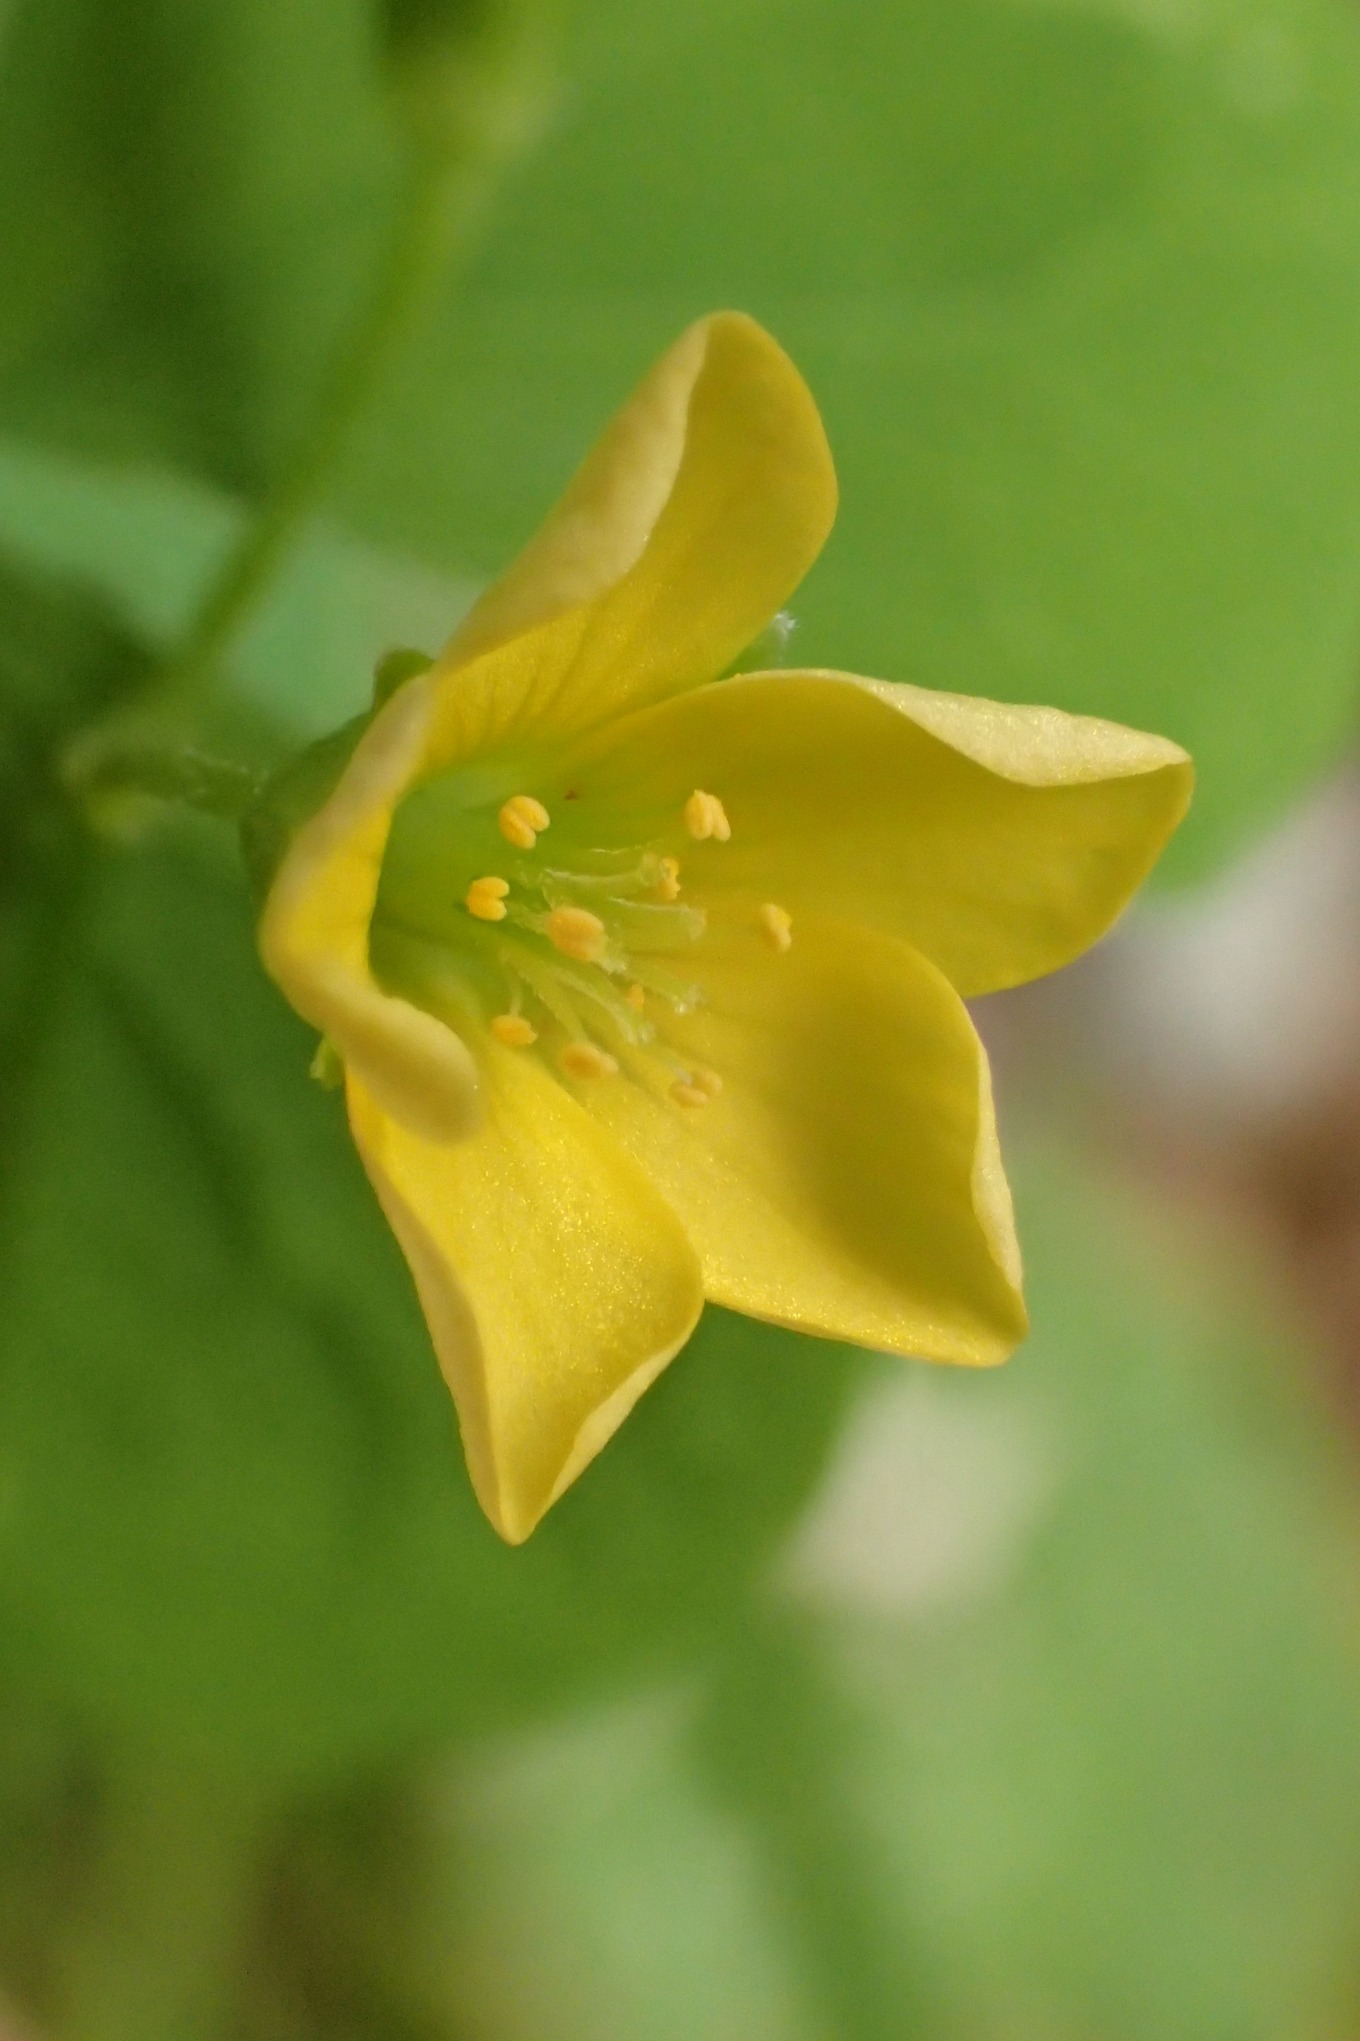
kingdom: Plantae
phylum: Tracheophyta
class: Magnoliopsida
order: Oxalidales
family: Oxalidaceae
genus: Oxalis
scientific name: Oxalis stricta
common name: Rank surkløver
